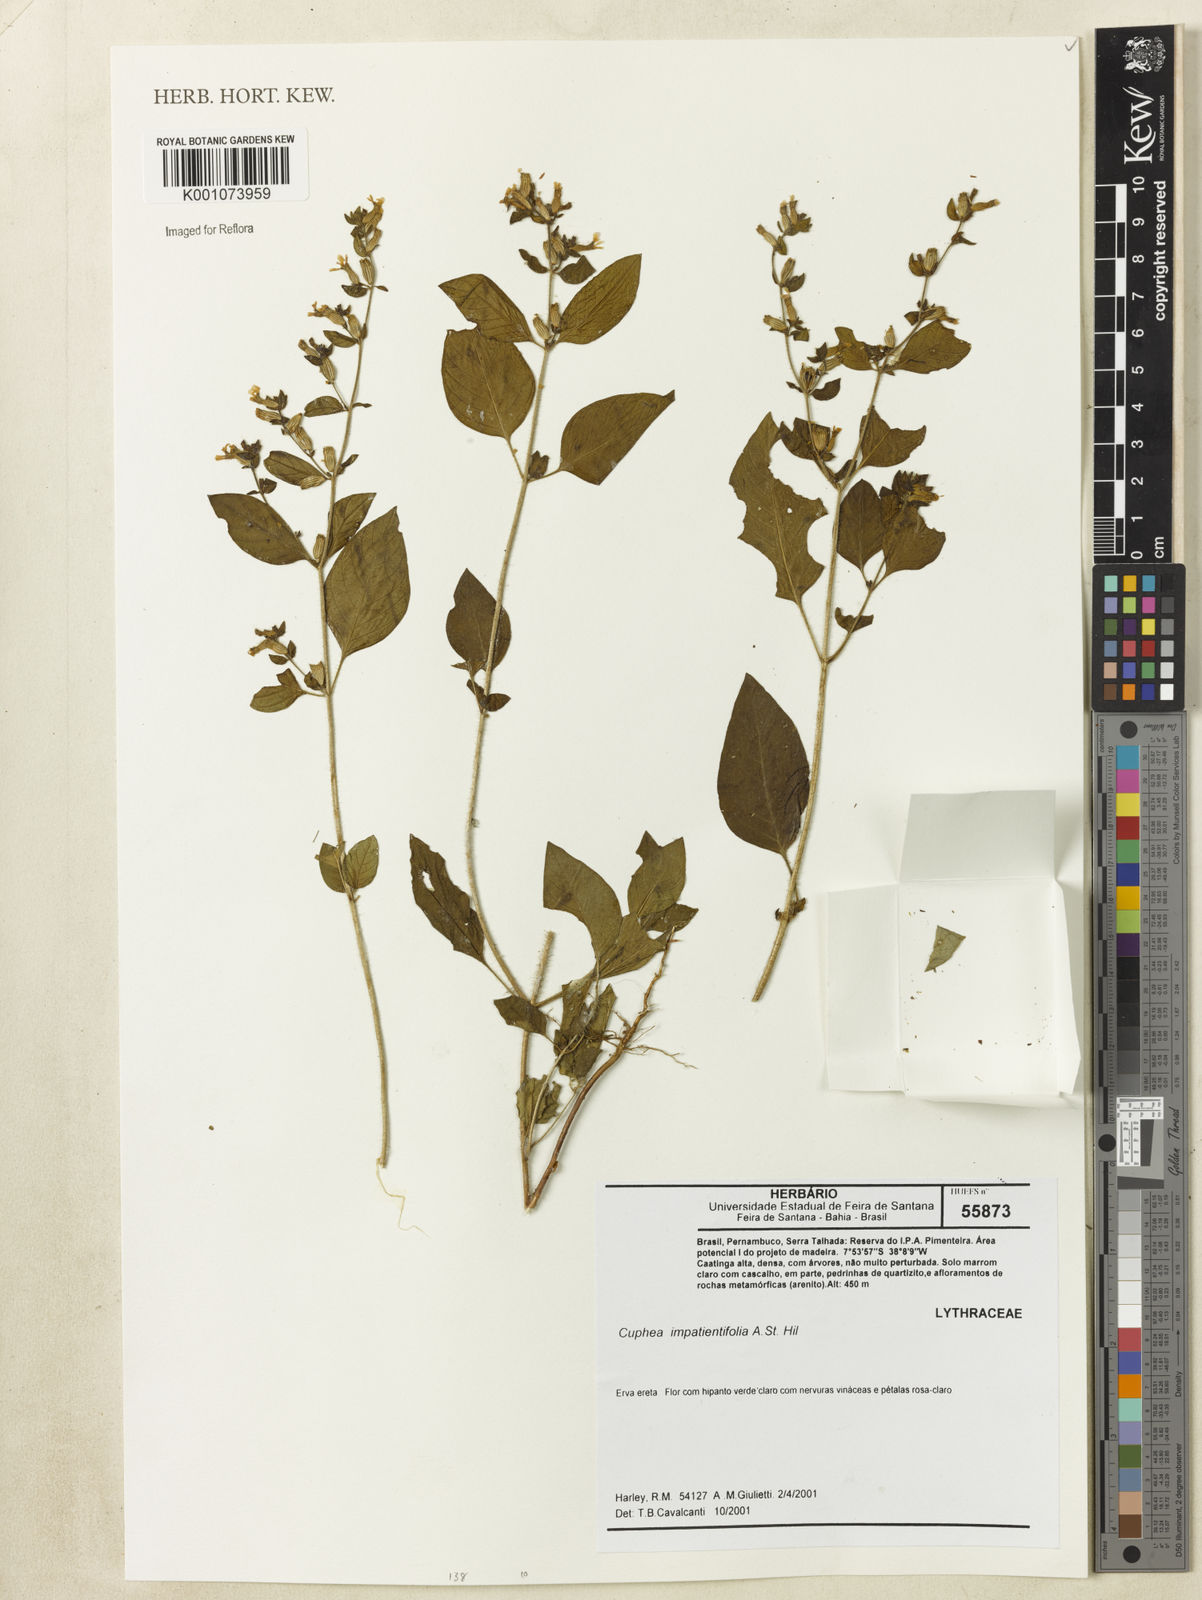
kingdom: Plantae
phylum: Tracheophyta
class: Magnoliopsida
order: Myrtales
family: Lythraceae
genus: Cuphea
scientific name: Cuphea impatientifolia
